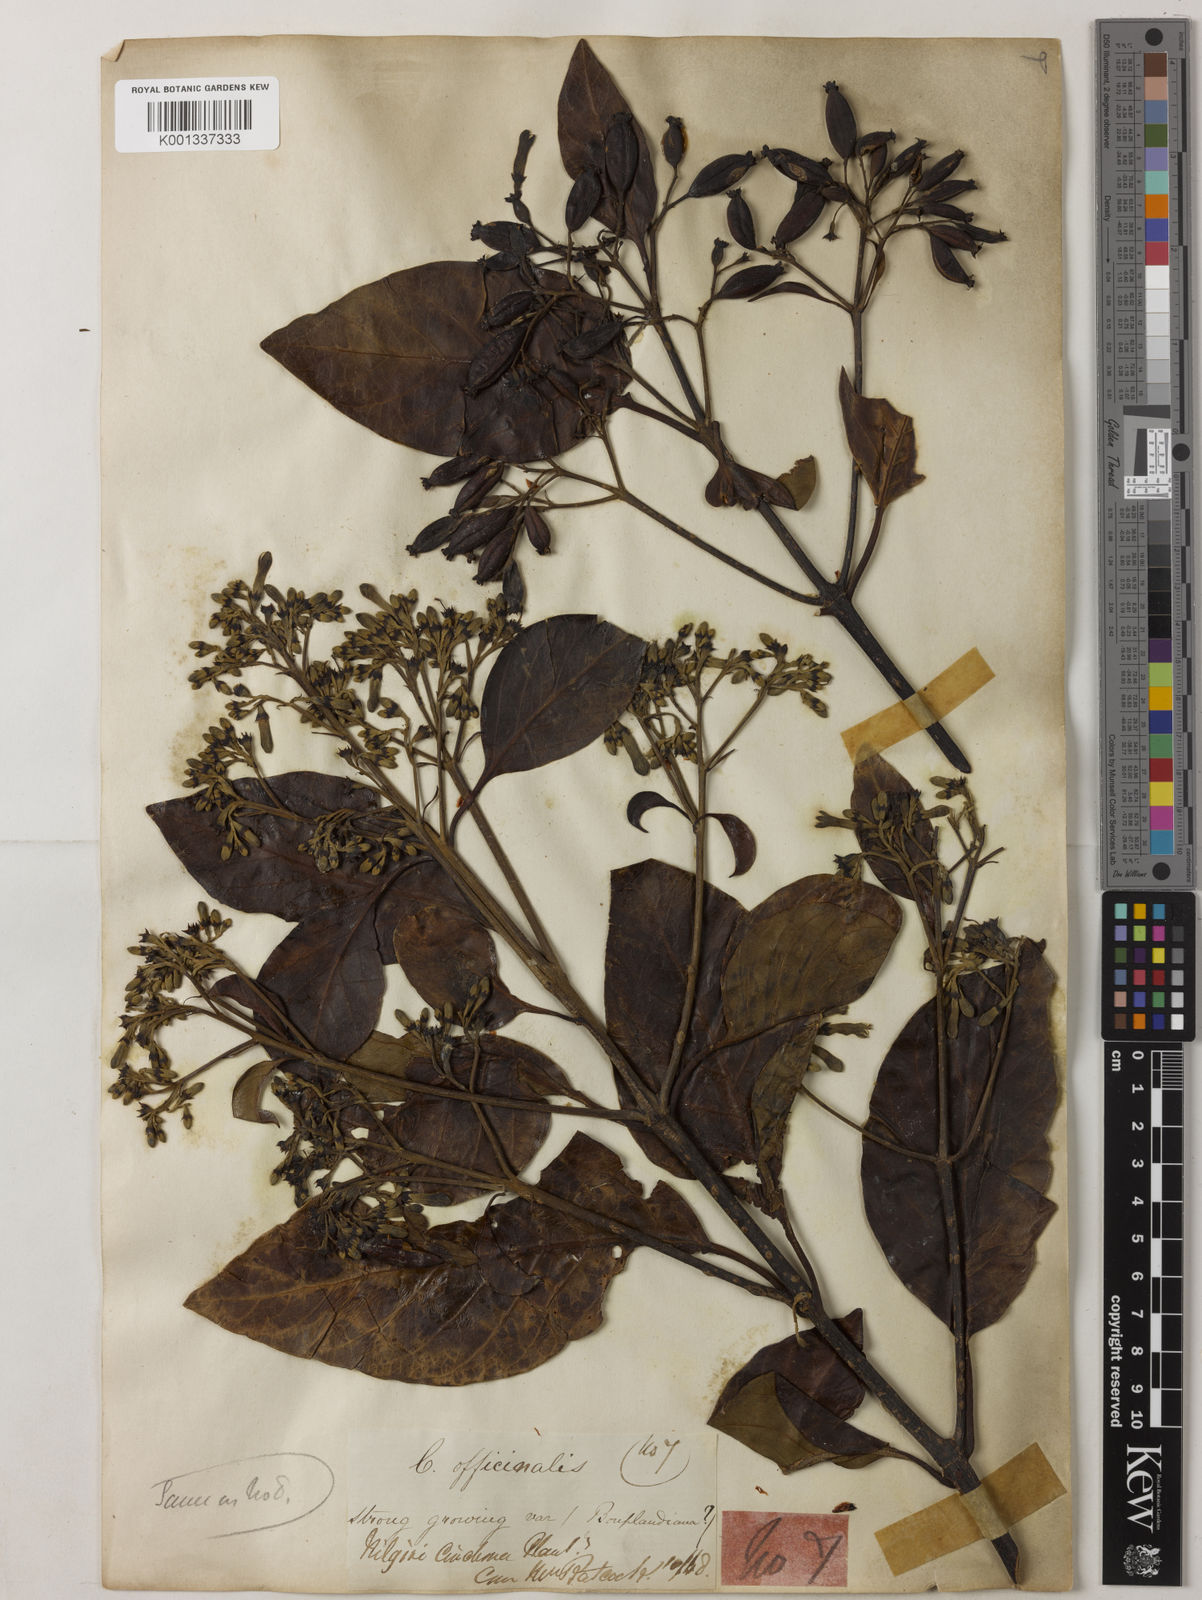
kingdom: Plantae
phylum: Tracheophyta
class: Magnoliopsida
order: Gentianales
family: Rubiaceae
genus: Cinchona
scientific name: Cinchona officinalis
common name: Lojabark
